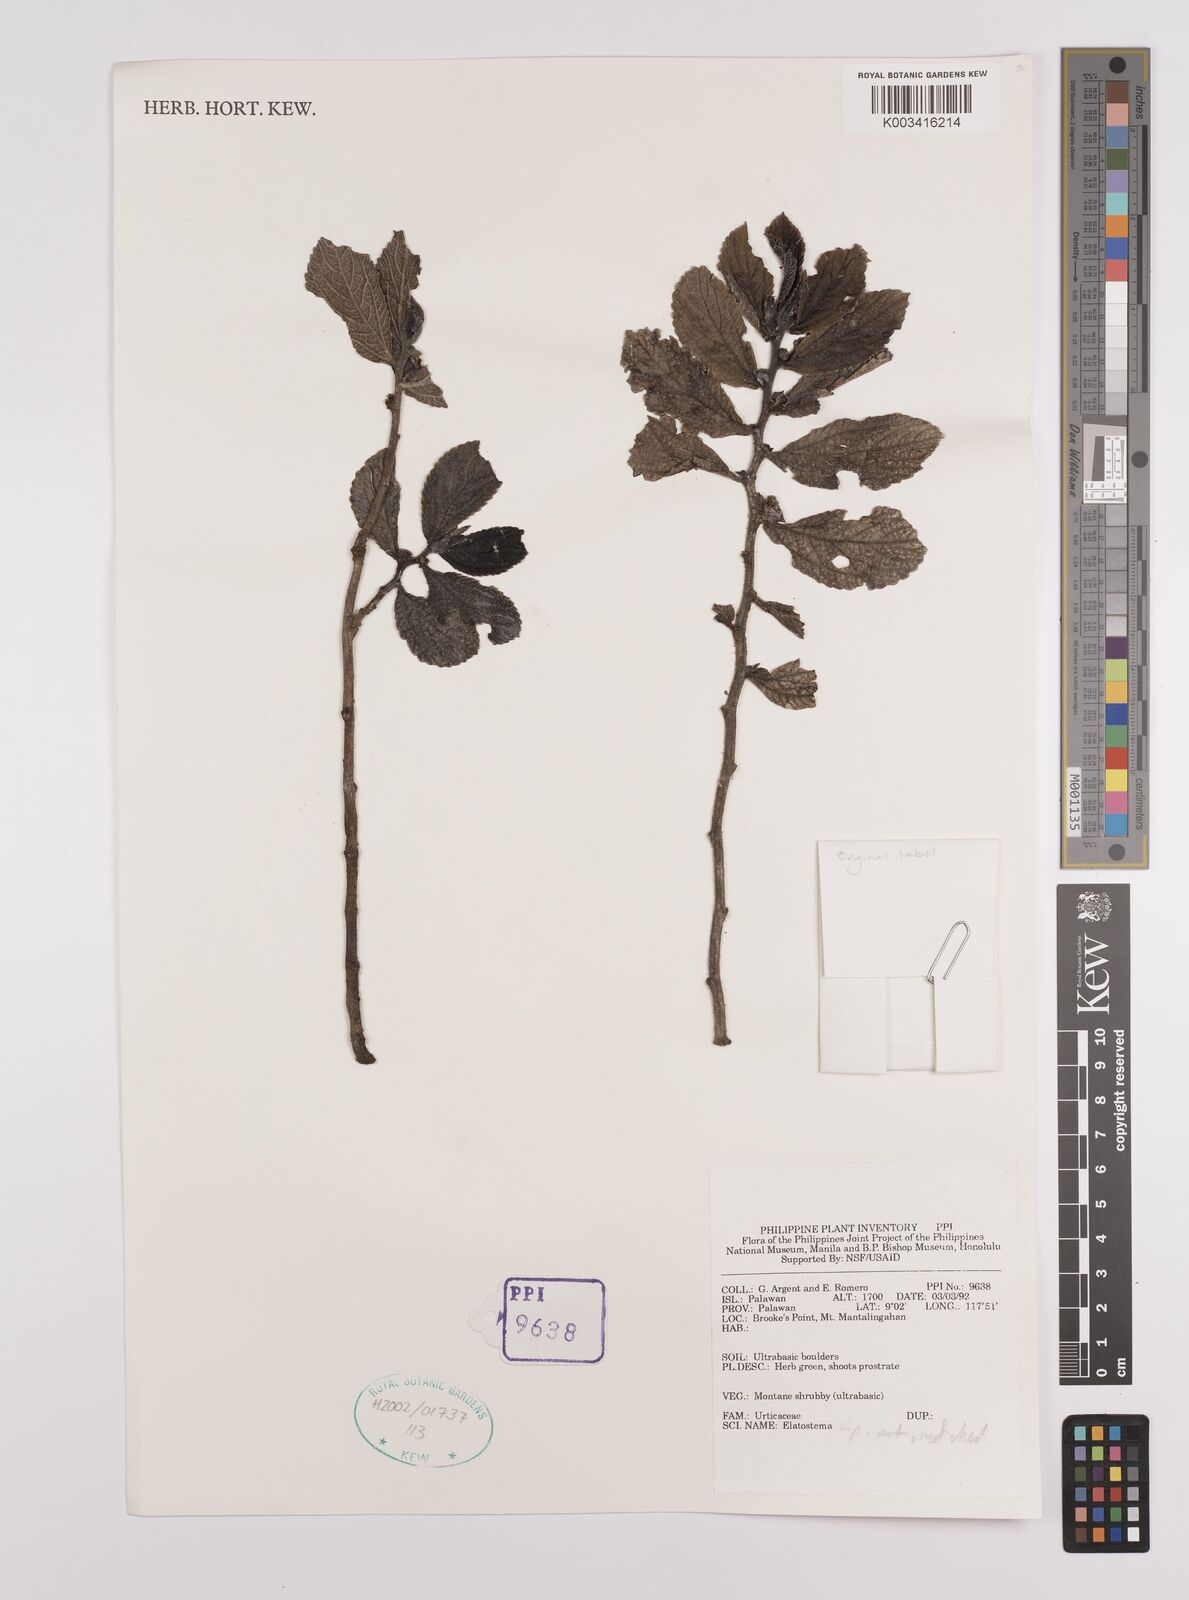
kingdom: Plantae
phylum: Tracheophyta
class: Magnoliopsida
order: Rosales
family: Urticaceae
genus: Elatostema
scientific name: Elatostema
